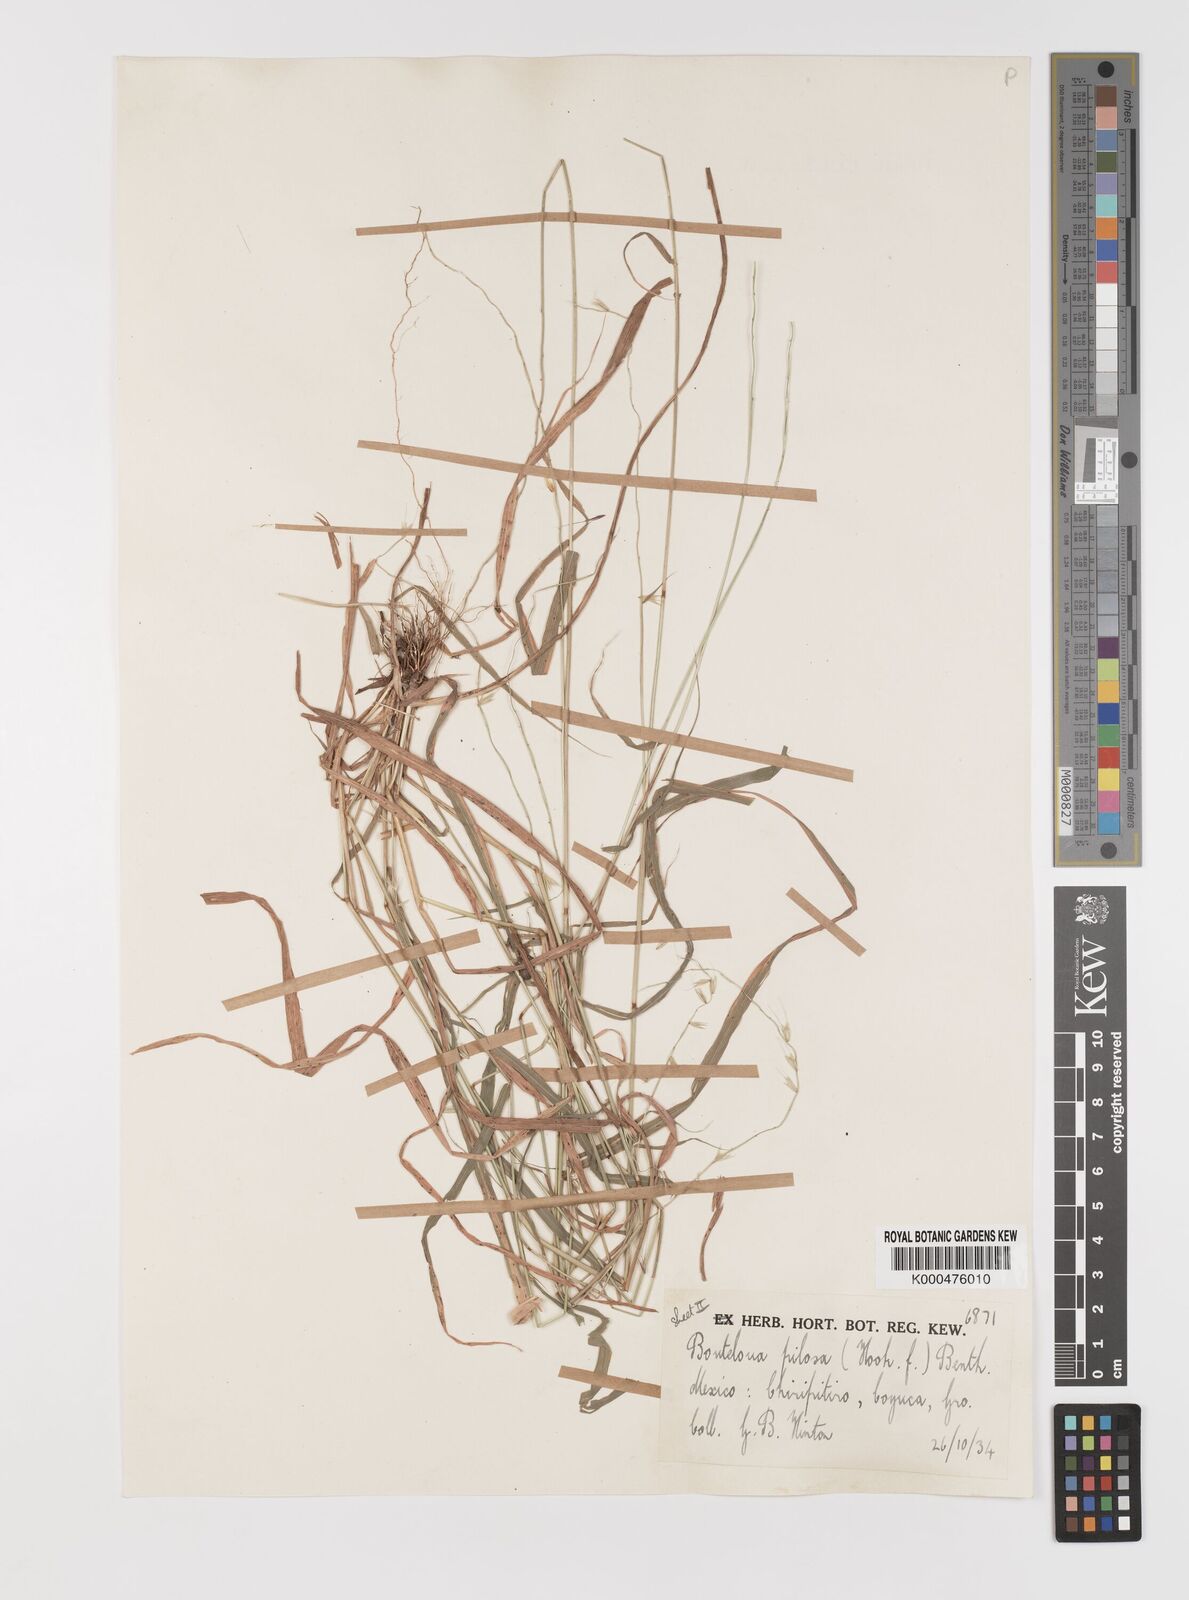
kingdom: Plantae
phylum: Tracheophyta
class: Liliopsida
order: Poales
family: Poaceae
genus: Bouteloua
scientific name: Bouteloua disticha
